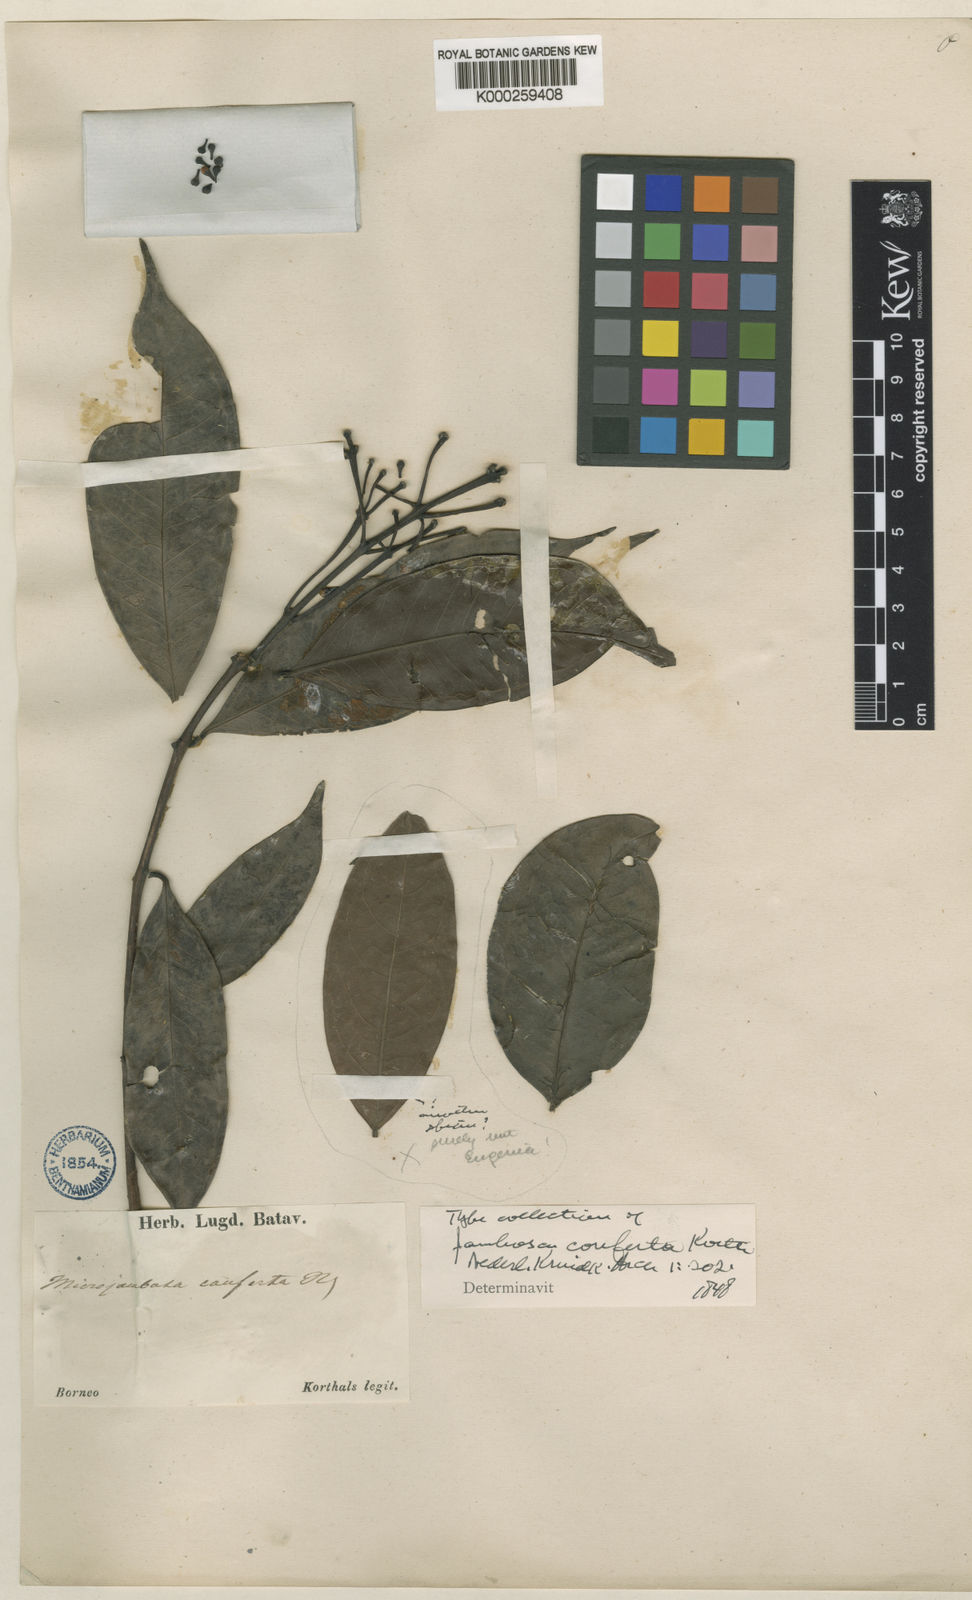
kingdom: Plantae
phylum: Tracheophyta
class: Magnoliopsida
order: Myrtales
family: Myrtaceae
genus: Syzygium
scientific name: Syzygium confertum
